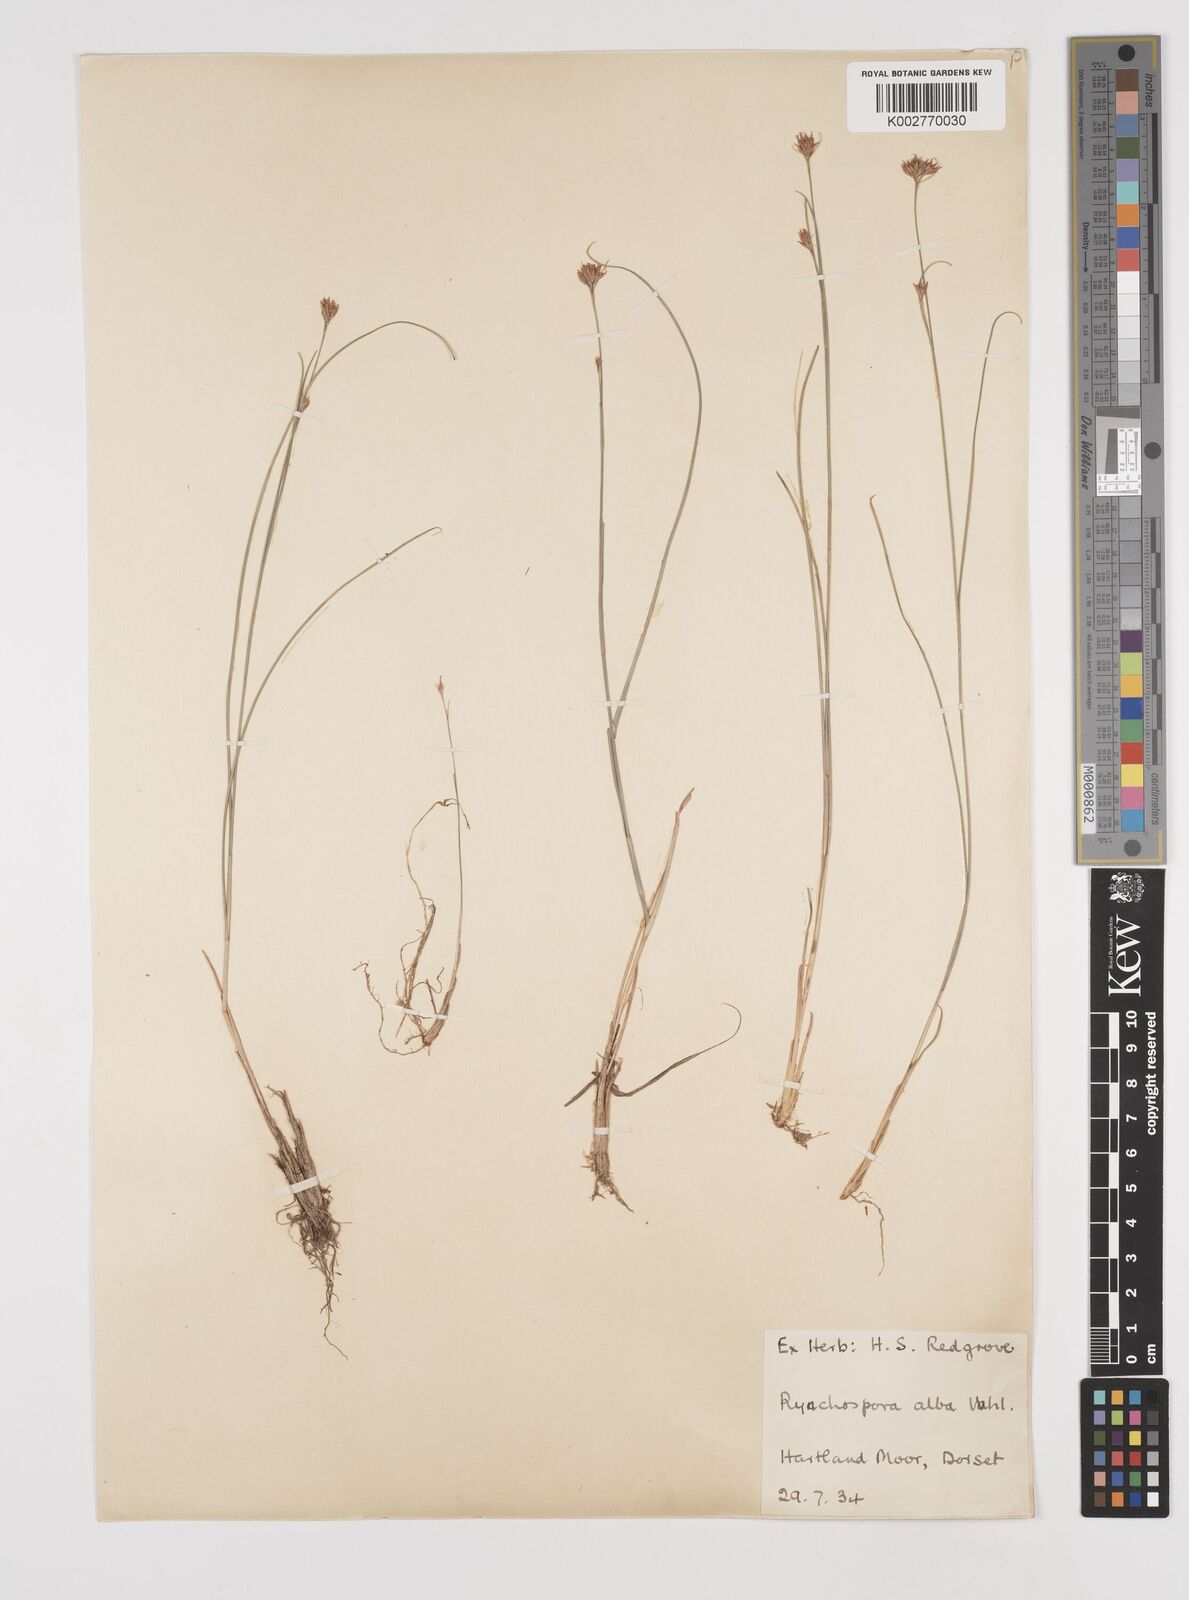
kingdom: Plantae
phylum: Tracheophyta
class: Liliopsida
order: Poales
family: Cyperaceae
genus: Rhynchospora
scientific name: Rhynchospora alba
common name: White beak-sedge
